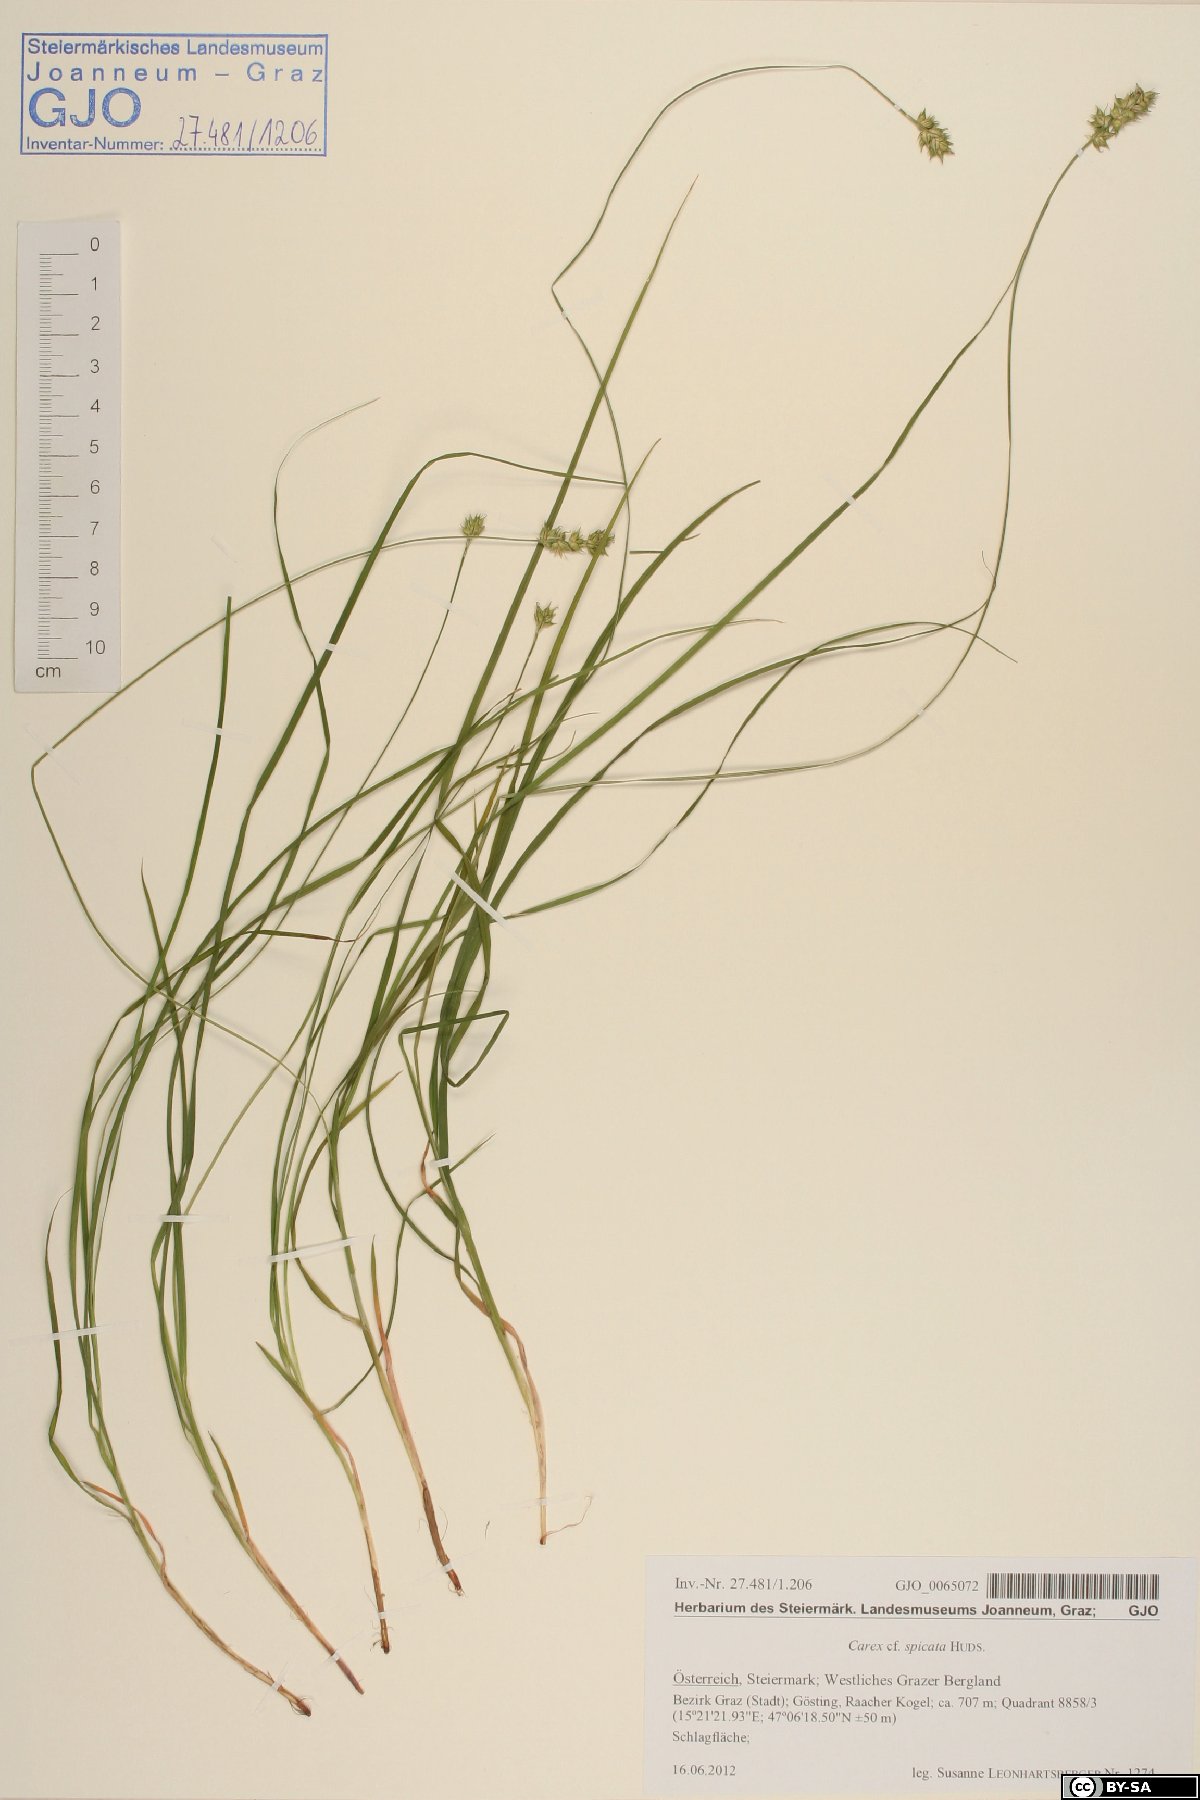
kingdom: Plantae
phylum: Tracheophyta
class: Liliopsida
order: Poales
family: Cyperaceae
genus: Carex
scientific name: Carex spicata
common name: Spiked sedge
